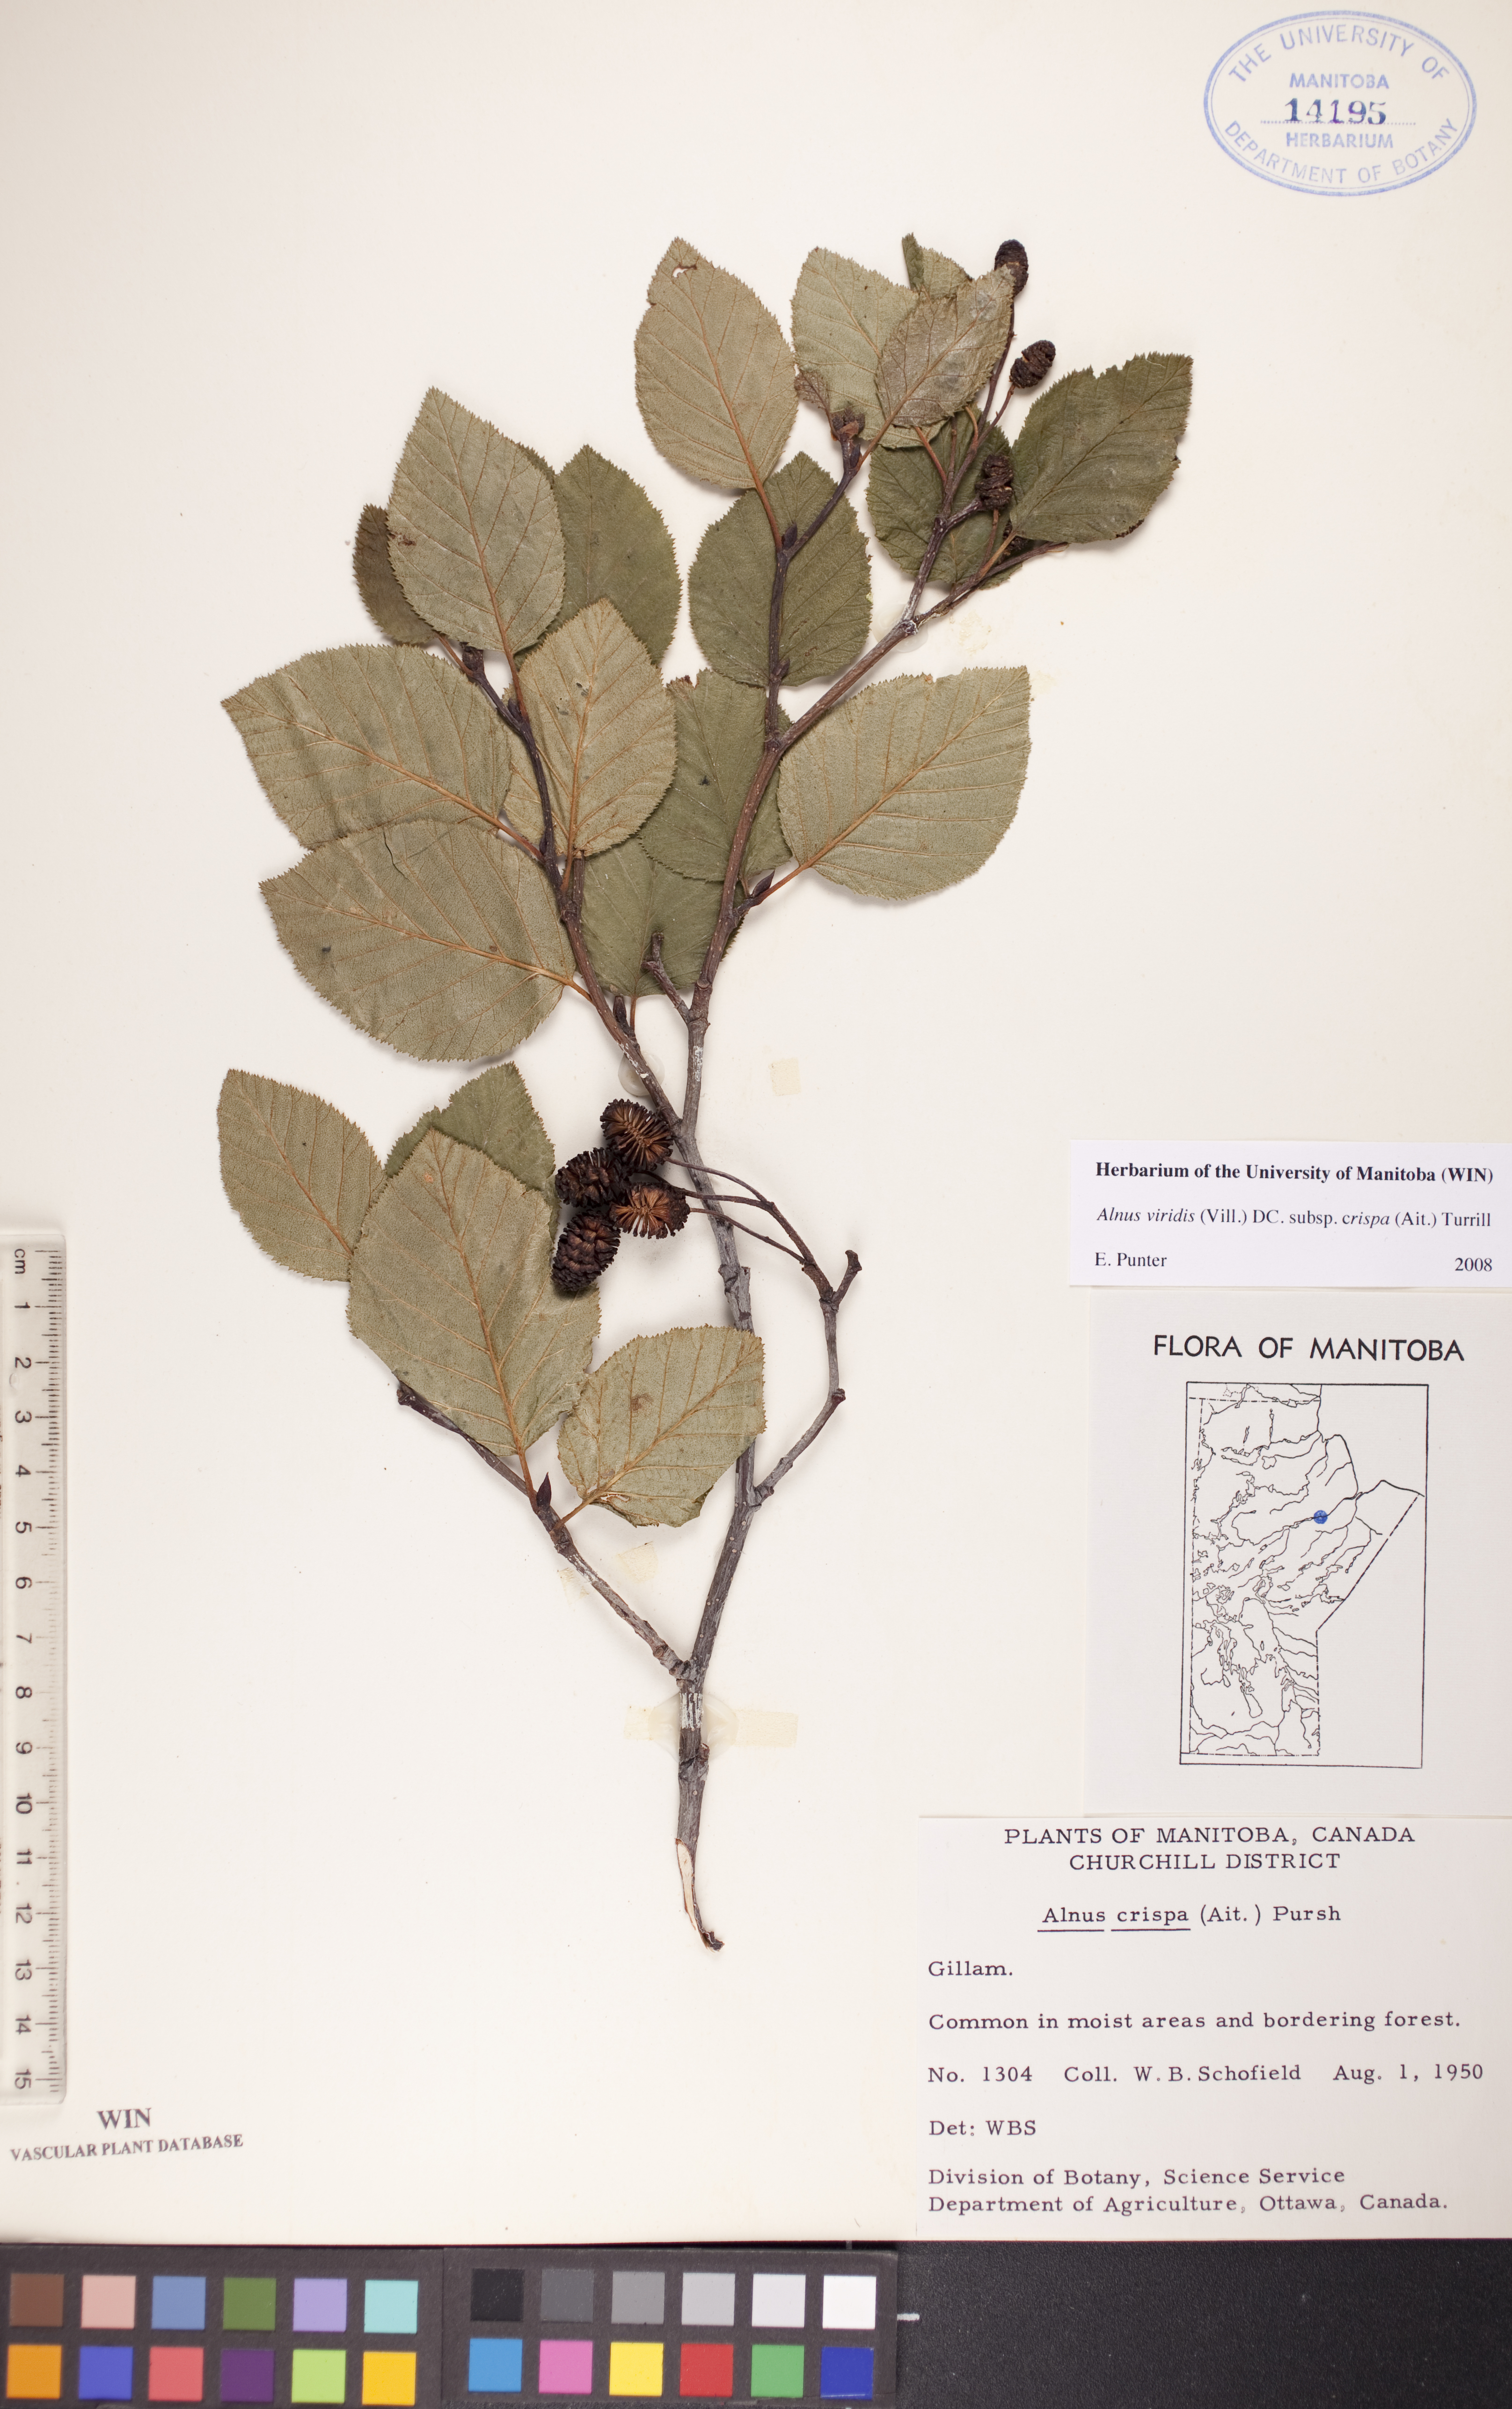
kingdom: Plantae
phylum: Tracheophyta
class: Magnoliopsida
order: Fagales
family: Betulaceae
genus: Alnus
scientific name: Alnus alnobetula
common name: Green alder
